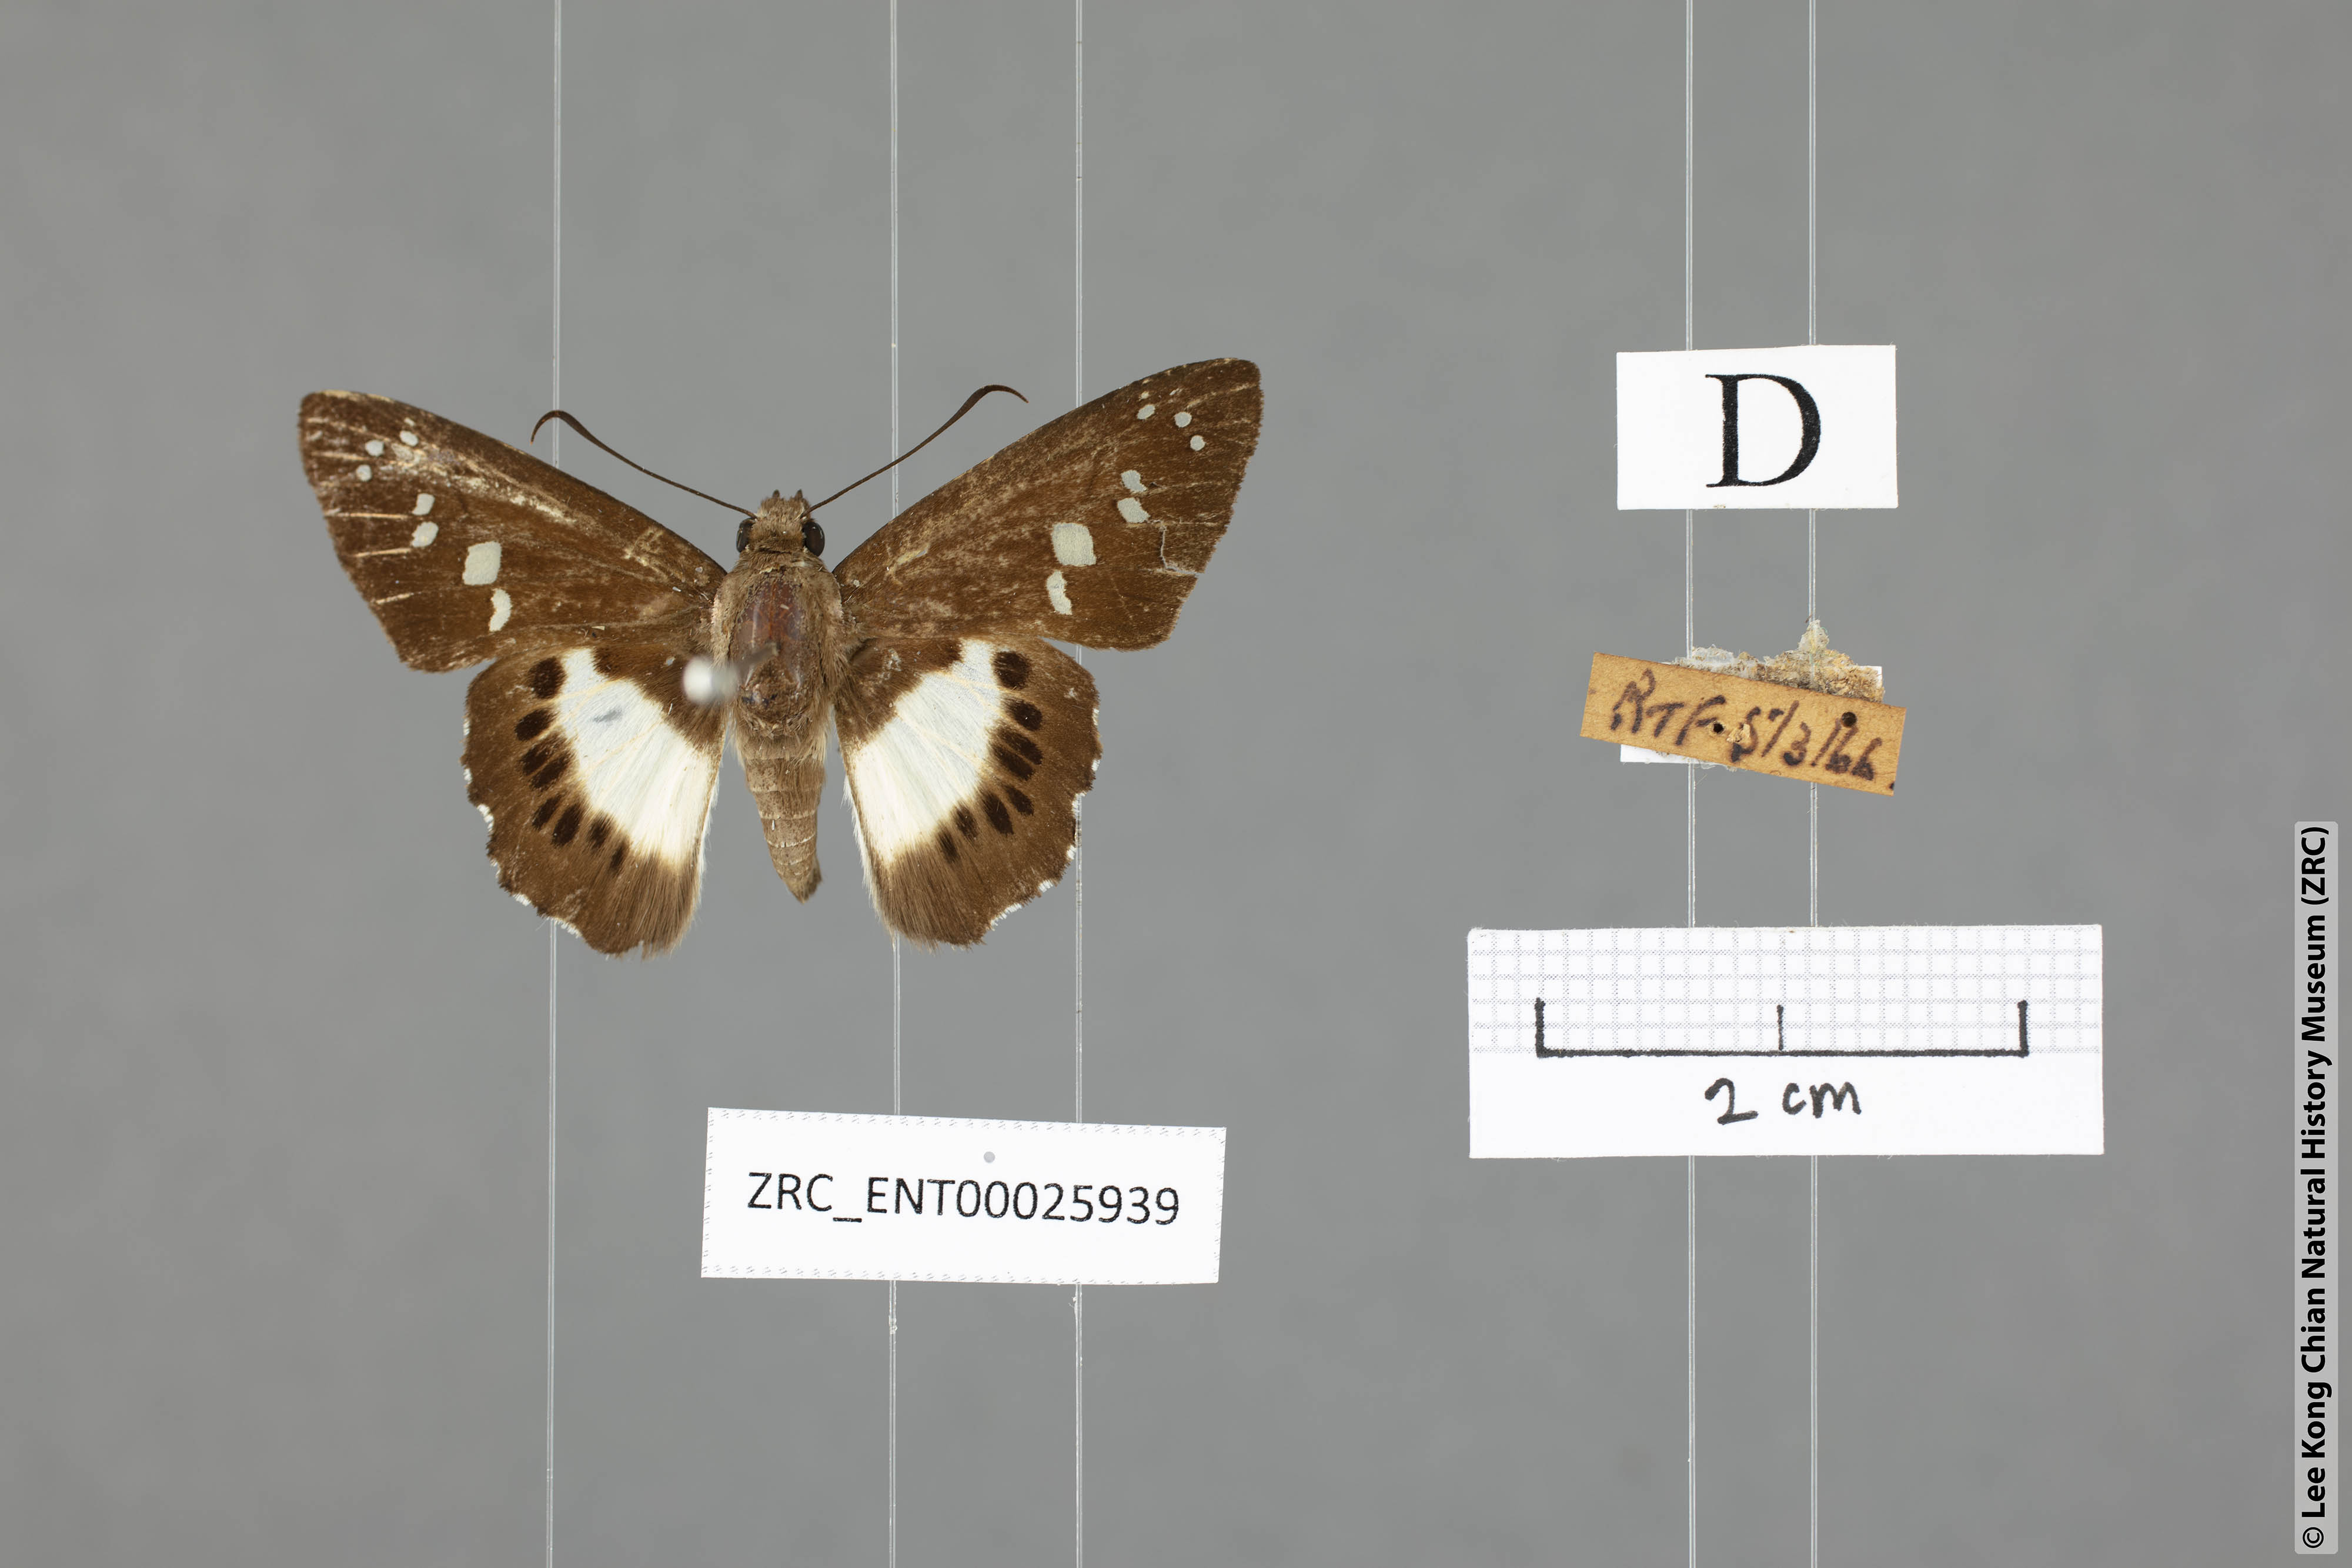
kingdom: Animalia
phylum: Arthropoda
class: Insecta
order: Lepidoptera
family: Hesperiidae
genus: Seseria
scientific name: Seseria affinis
